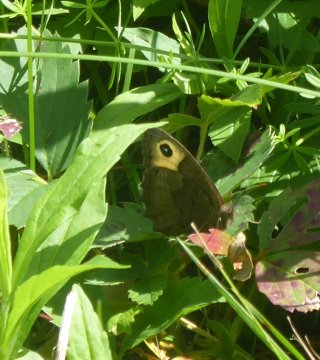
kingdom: Animalia
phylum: Arthropoda
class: Insecta
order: Lepidoptera
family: Nymphalidae
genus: Cercyonis
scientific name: Cercyonis pegala
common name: Common Wood-Nymph
